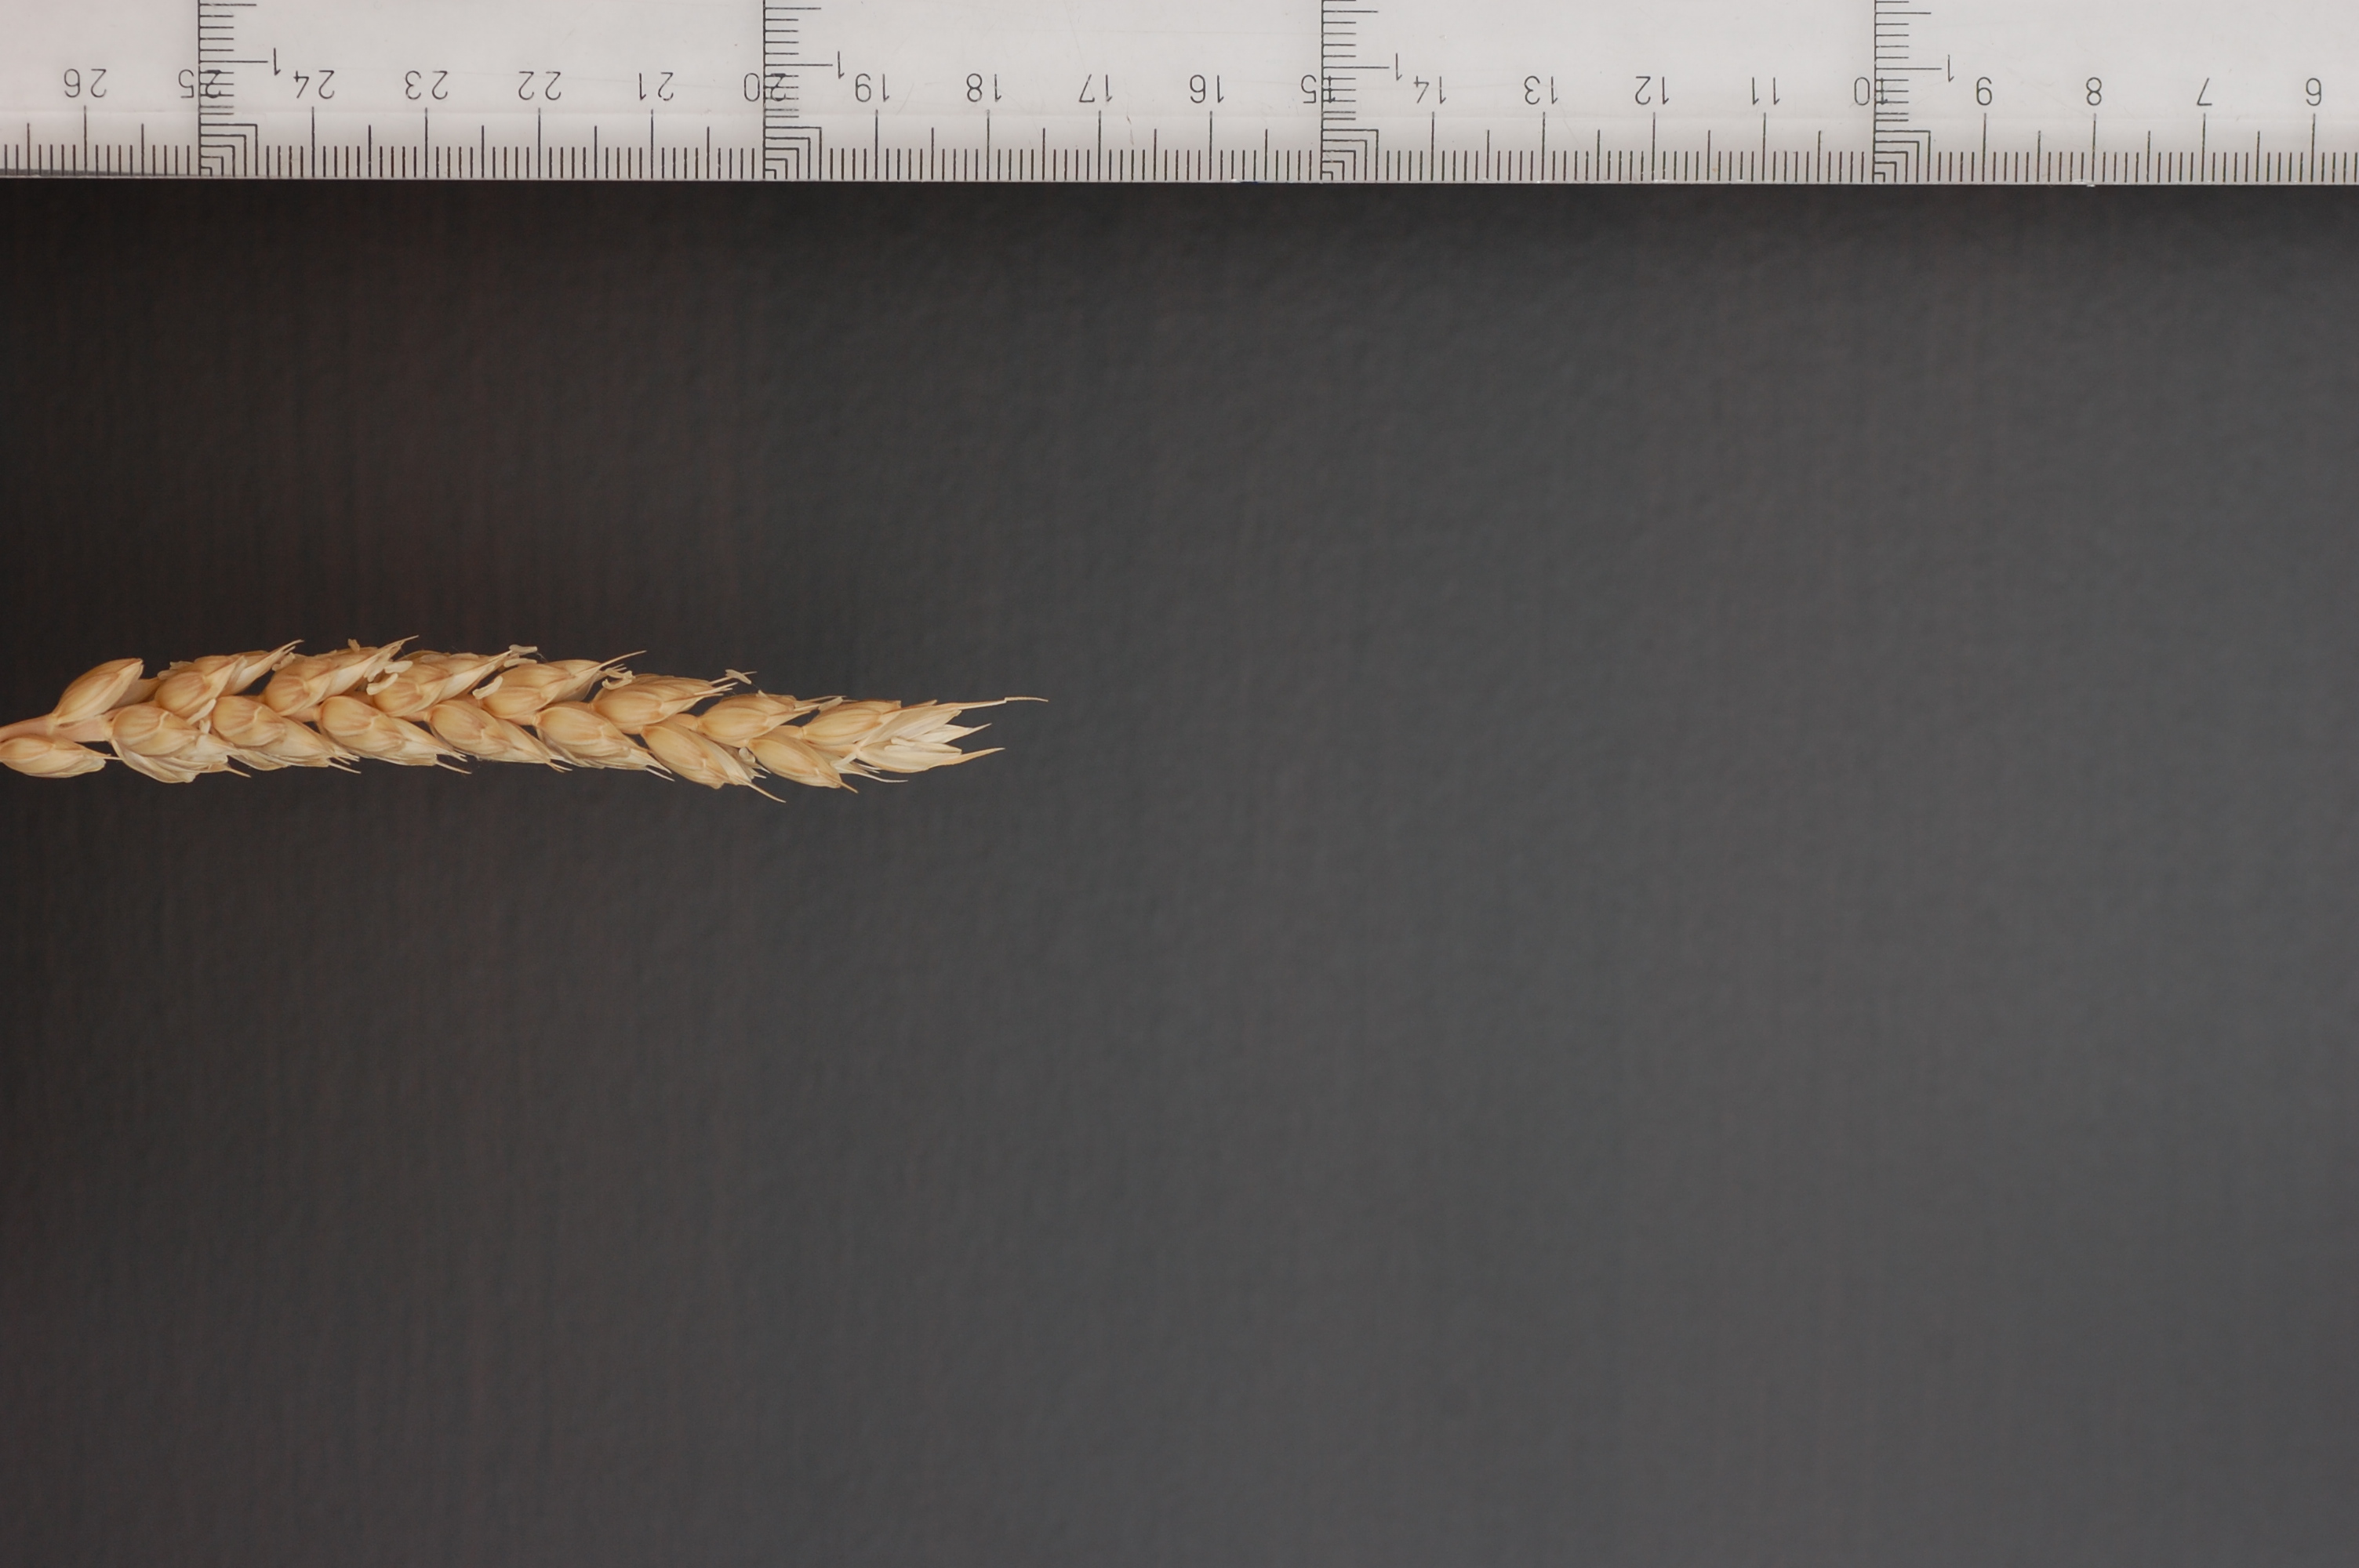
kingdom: Plantae
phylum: Tracheophyta
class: Liliopsida
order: Poales
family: Poaceae
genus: Triticum
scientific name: Triticum aestivum
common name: Common wheat
